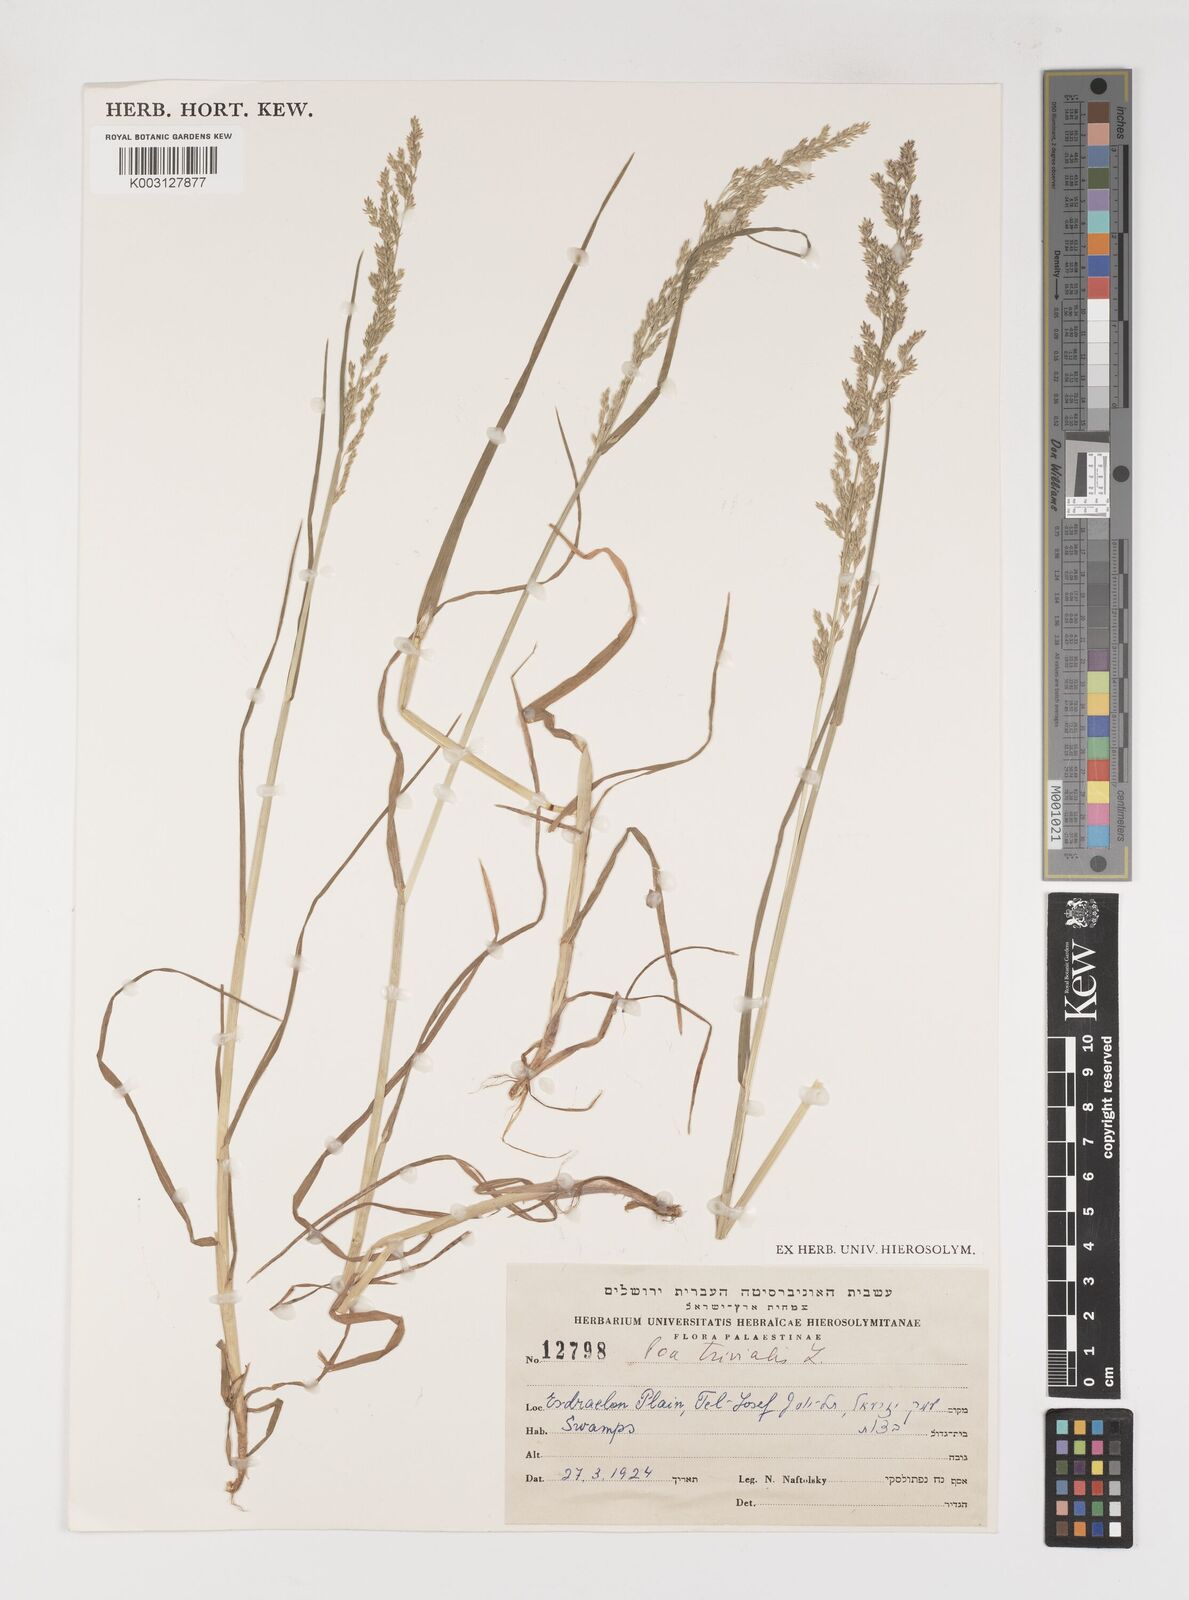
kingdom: Plantae
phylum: Tracheophyta
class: Liliopsida
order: Poales
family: Poaceae
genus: Poa
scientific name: Poa trivialis
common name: Rough bluegrass
